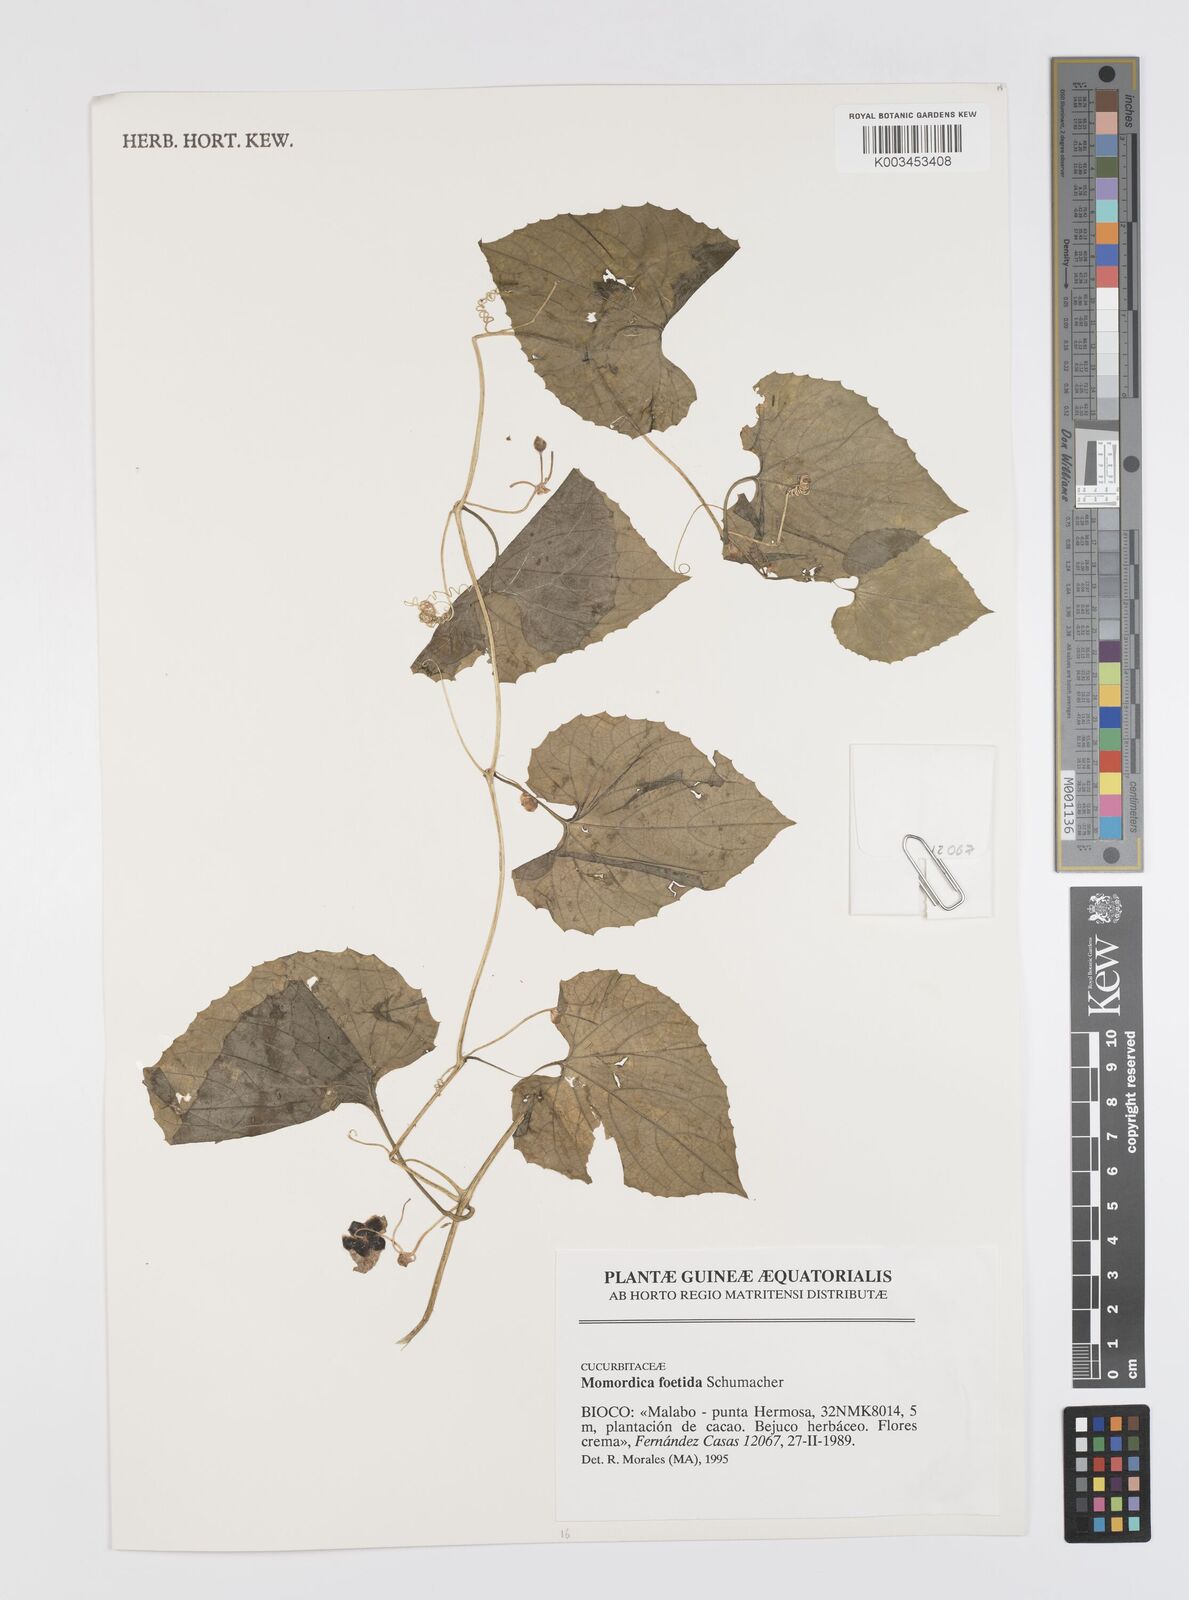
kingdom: Plantae
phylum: Tracheophyta
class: Magnoliopsida
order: Cucurbitales
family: Cucurbitaceae
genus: Momordica
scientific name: Momordica foetida
